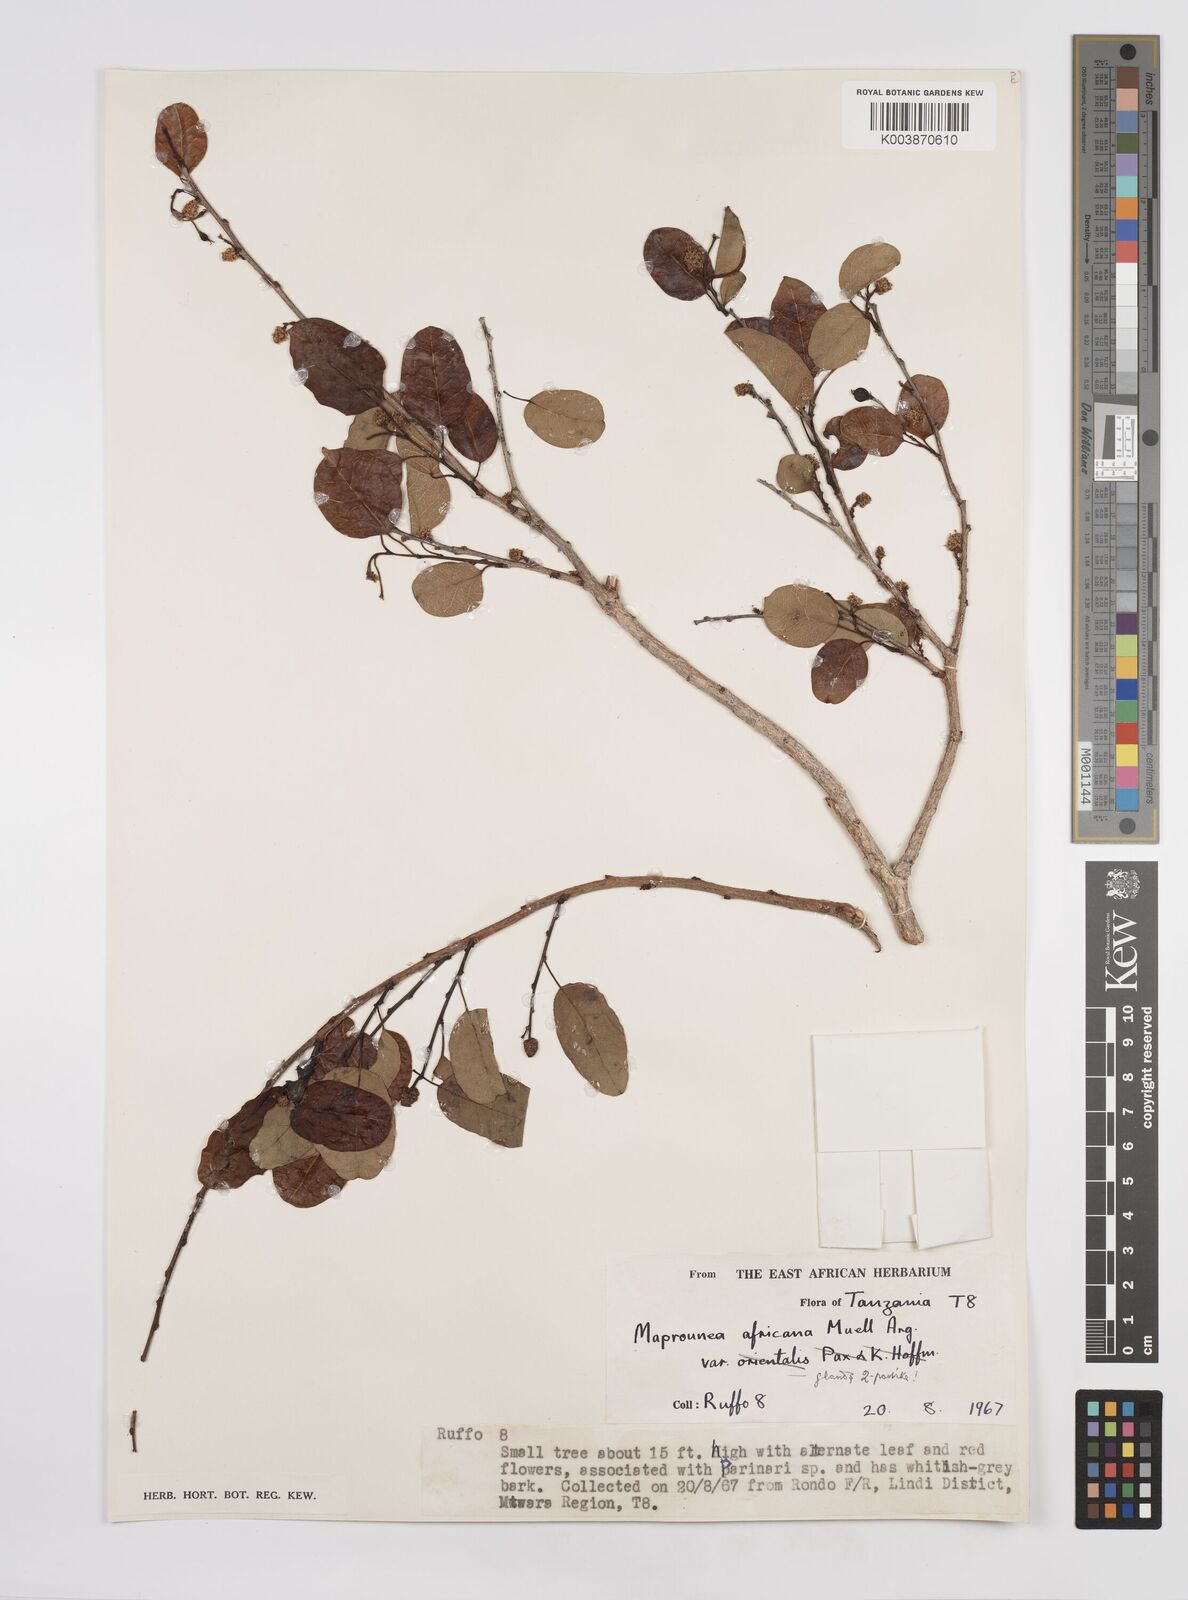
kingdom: Plantae
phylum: Tracheophyta
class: Magnoliopsida
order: Malpighiales
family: Euphorbiaceae
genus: Maprounea
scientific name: Maprounea africana
